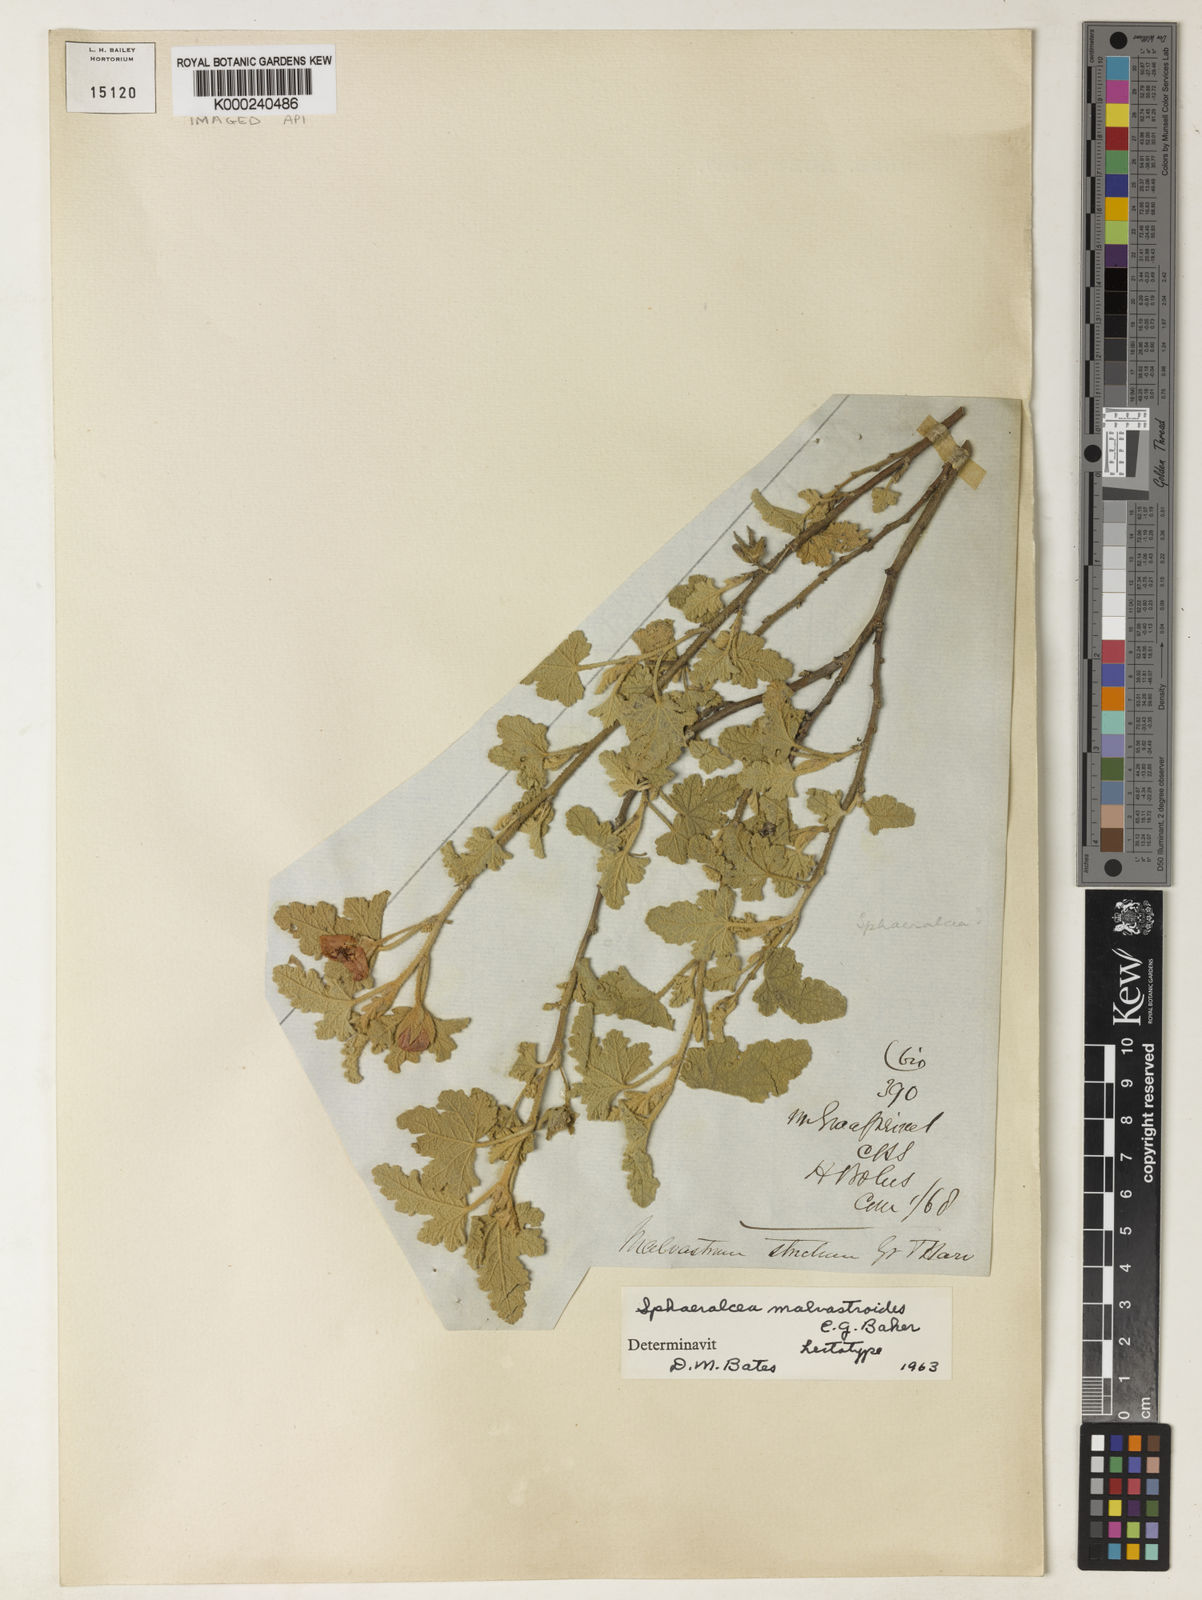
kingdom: Plantae
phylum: Tracheophyta
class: Magnoliopsida
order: Malvales
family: Malvaceae
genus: Anisodontea
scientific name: Anisodontea malvastroides
